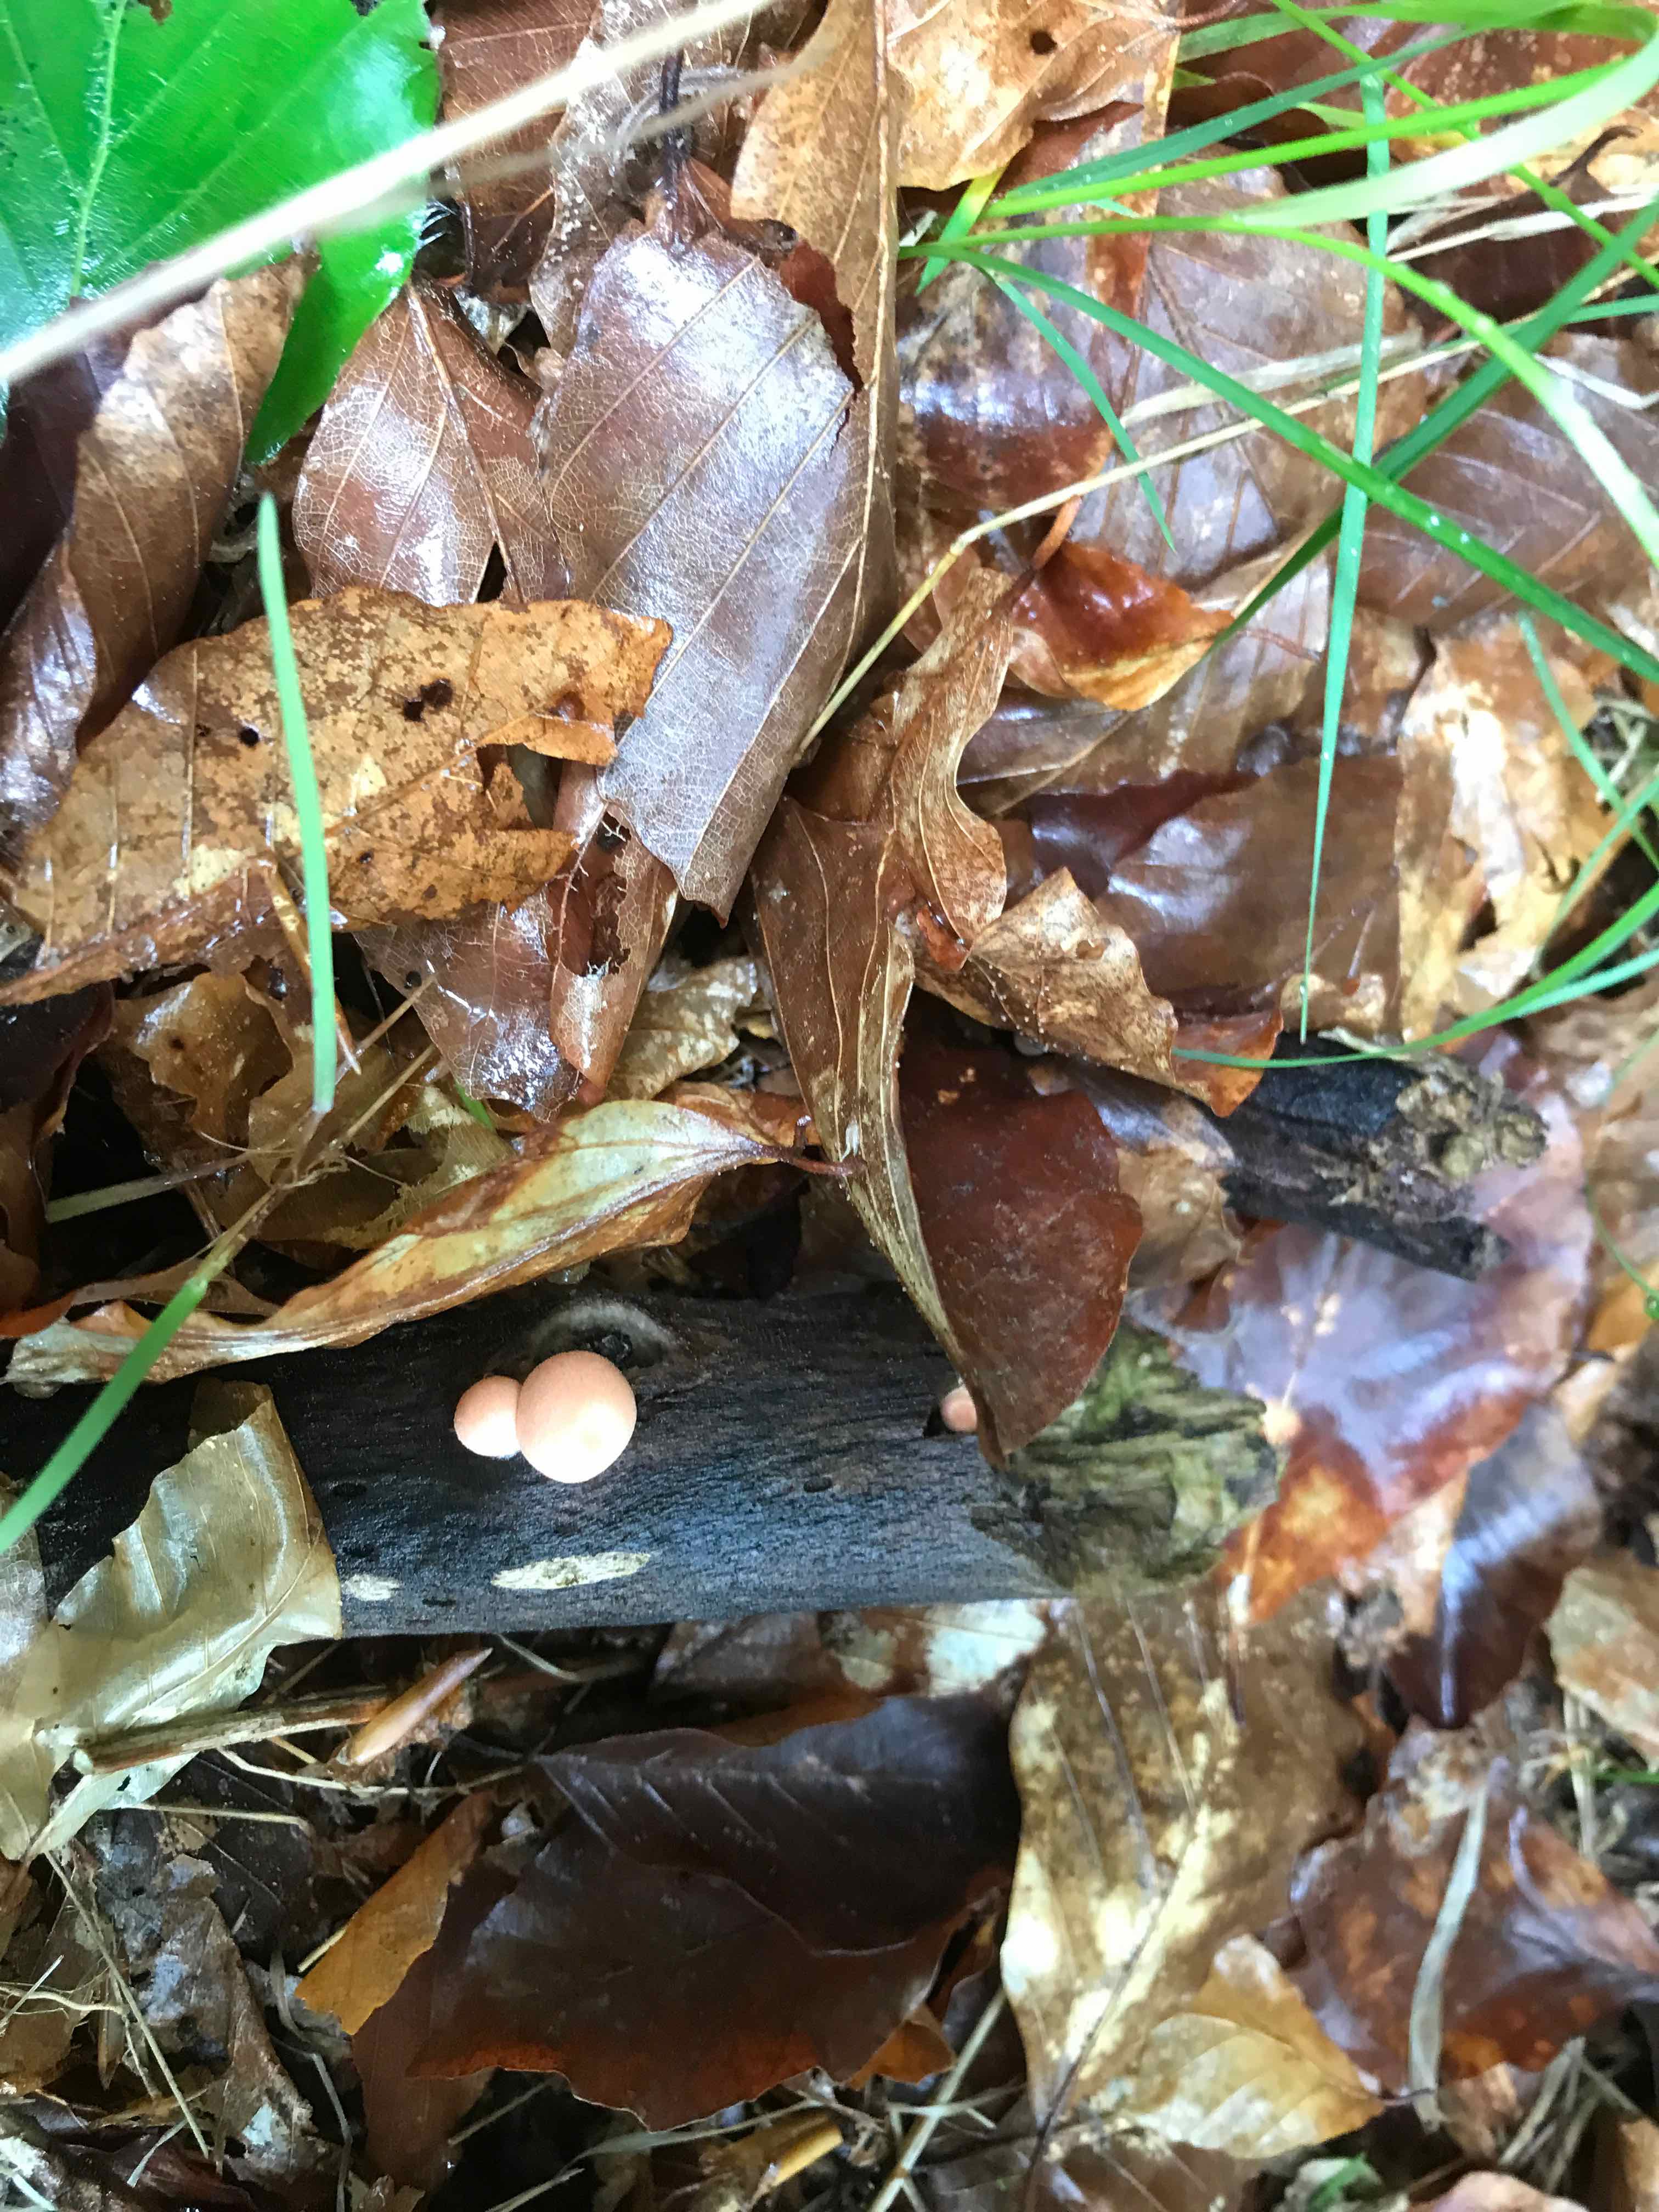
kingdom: Protozoa
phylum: Mycetozoa
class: Myxomycetes
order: Cribrariales
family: Tubiferaceae
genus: Lycogala
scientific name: Lycogala epidendrum
